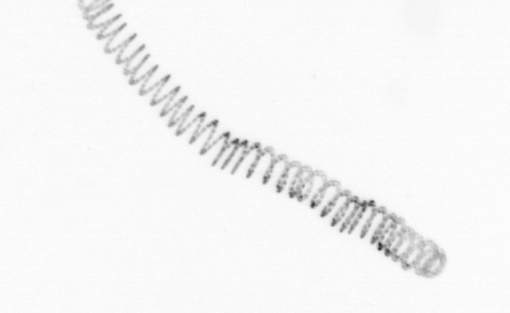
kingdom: Chromista
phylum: Ochrophyta
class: Bacillariophyceae
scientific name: Bacillariophyceae
